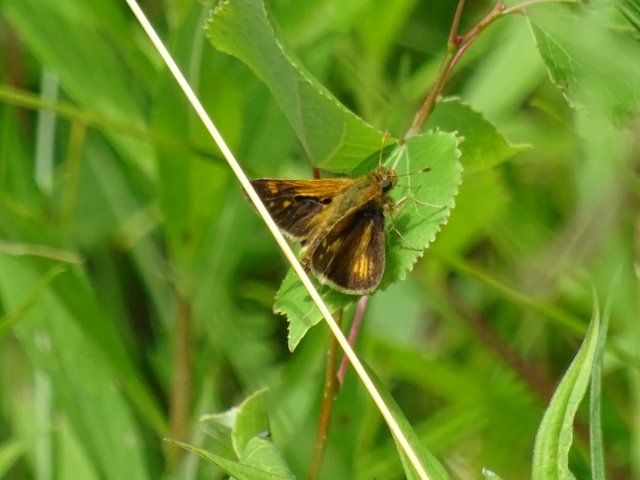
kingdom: Animalia
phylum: Arthropoda
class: Insecta
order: Lepidoptera
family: Hesperiidae
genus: Polites
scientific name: Polites coras
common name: Peck's Skipper
